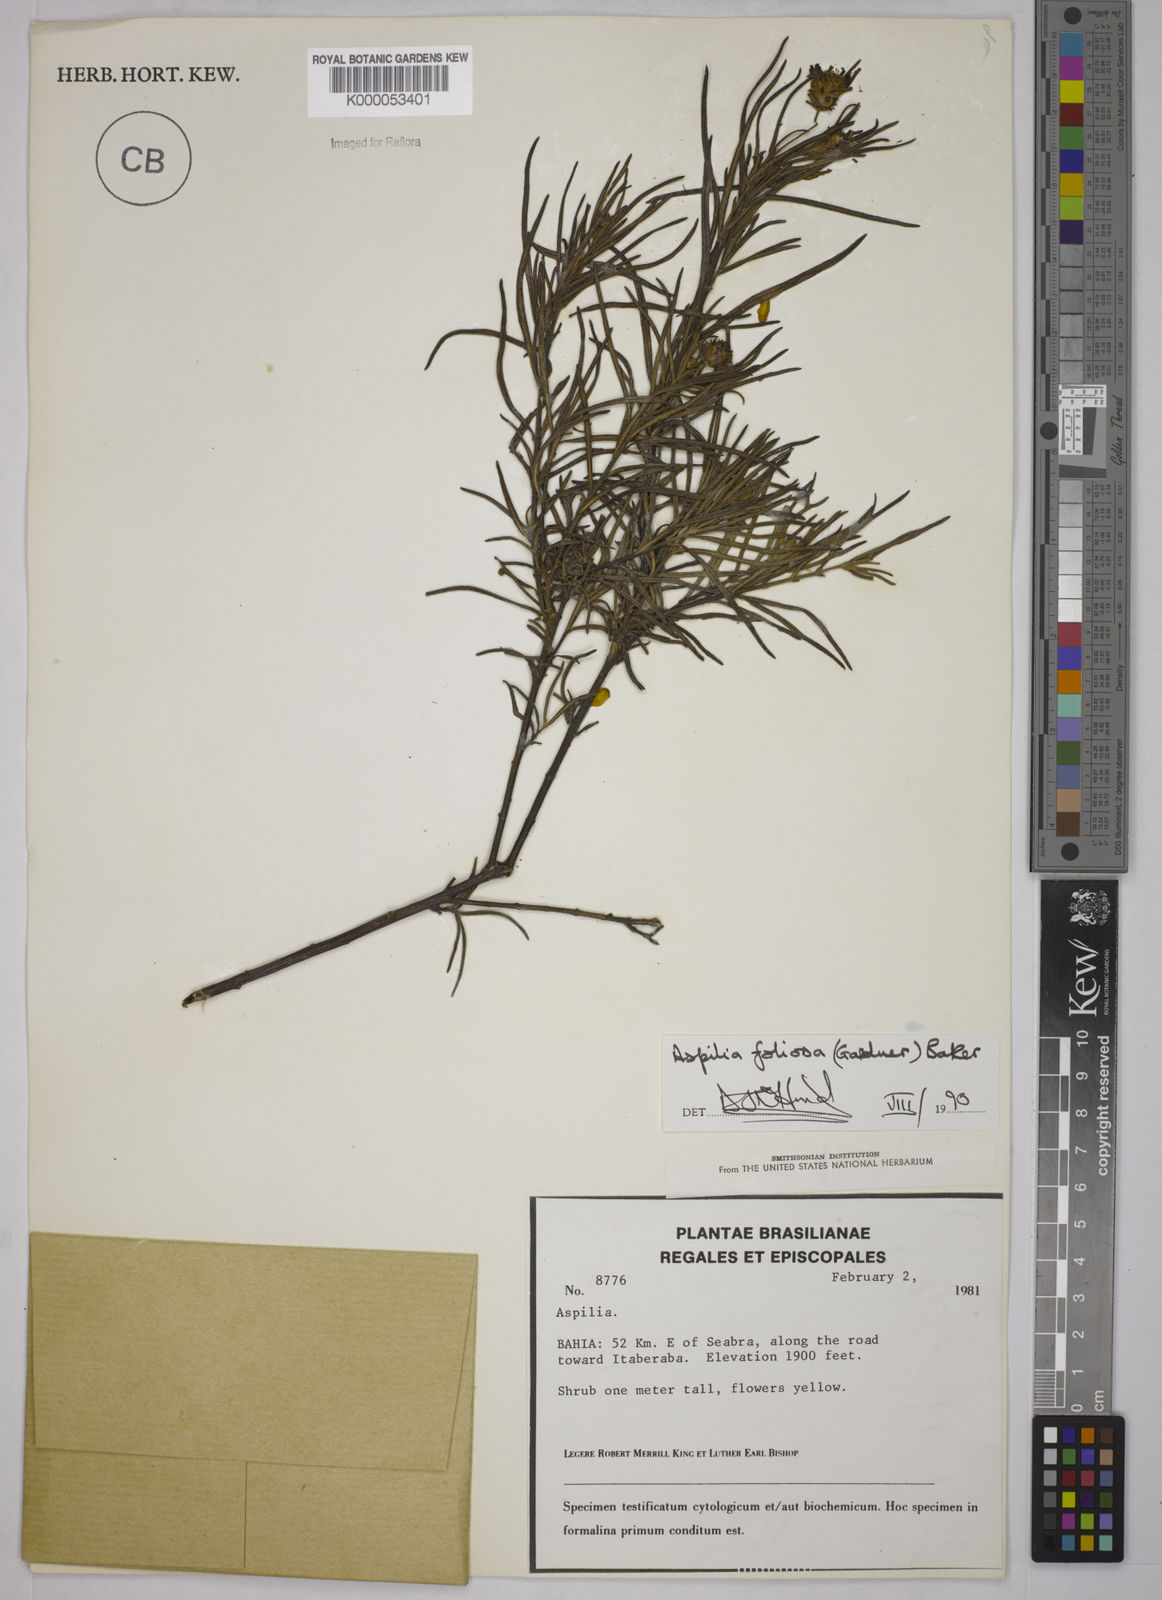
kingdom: Plantae
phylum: Tracheophyta
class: Magnoliopsida
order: Asterales
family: Asteraceae
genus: Aspilia
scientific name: Aspilia
